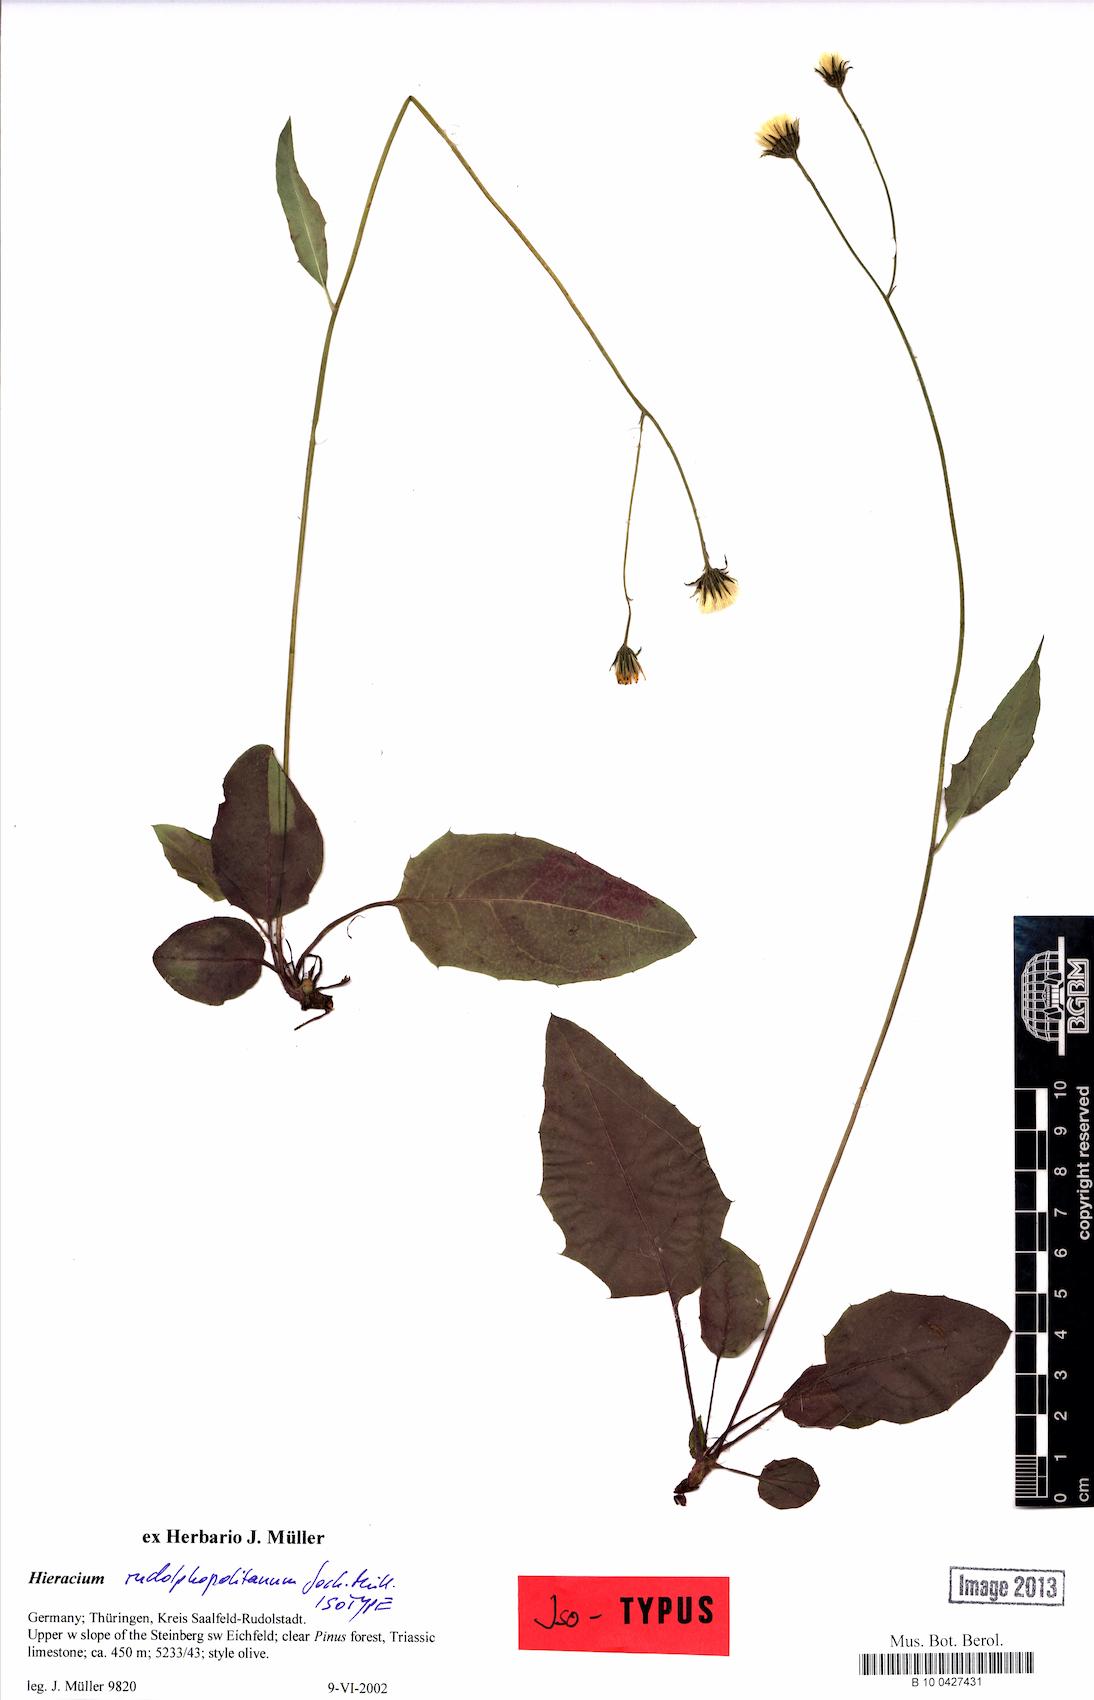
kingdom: Plantae
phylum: Tracheophyta
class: Magnoliopsida
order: Asterales
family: Asteraceae
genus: Hieracium
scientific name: Hieracium hypochoeroides
